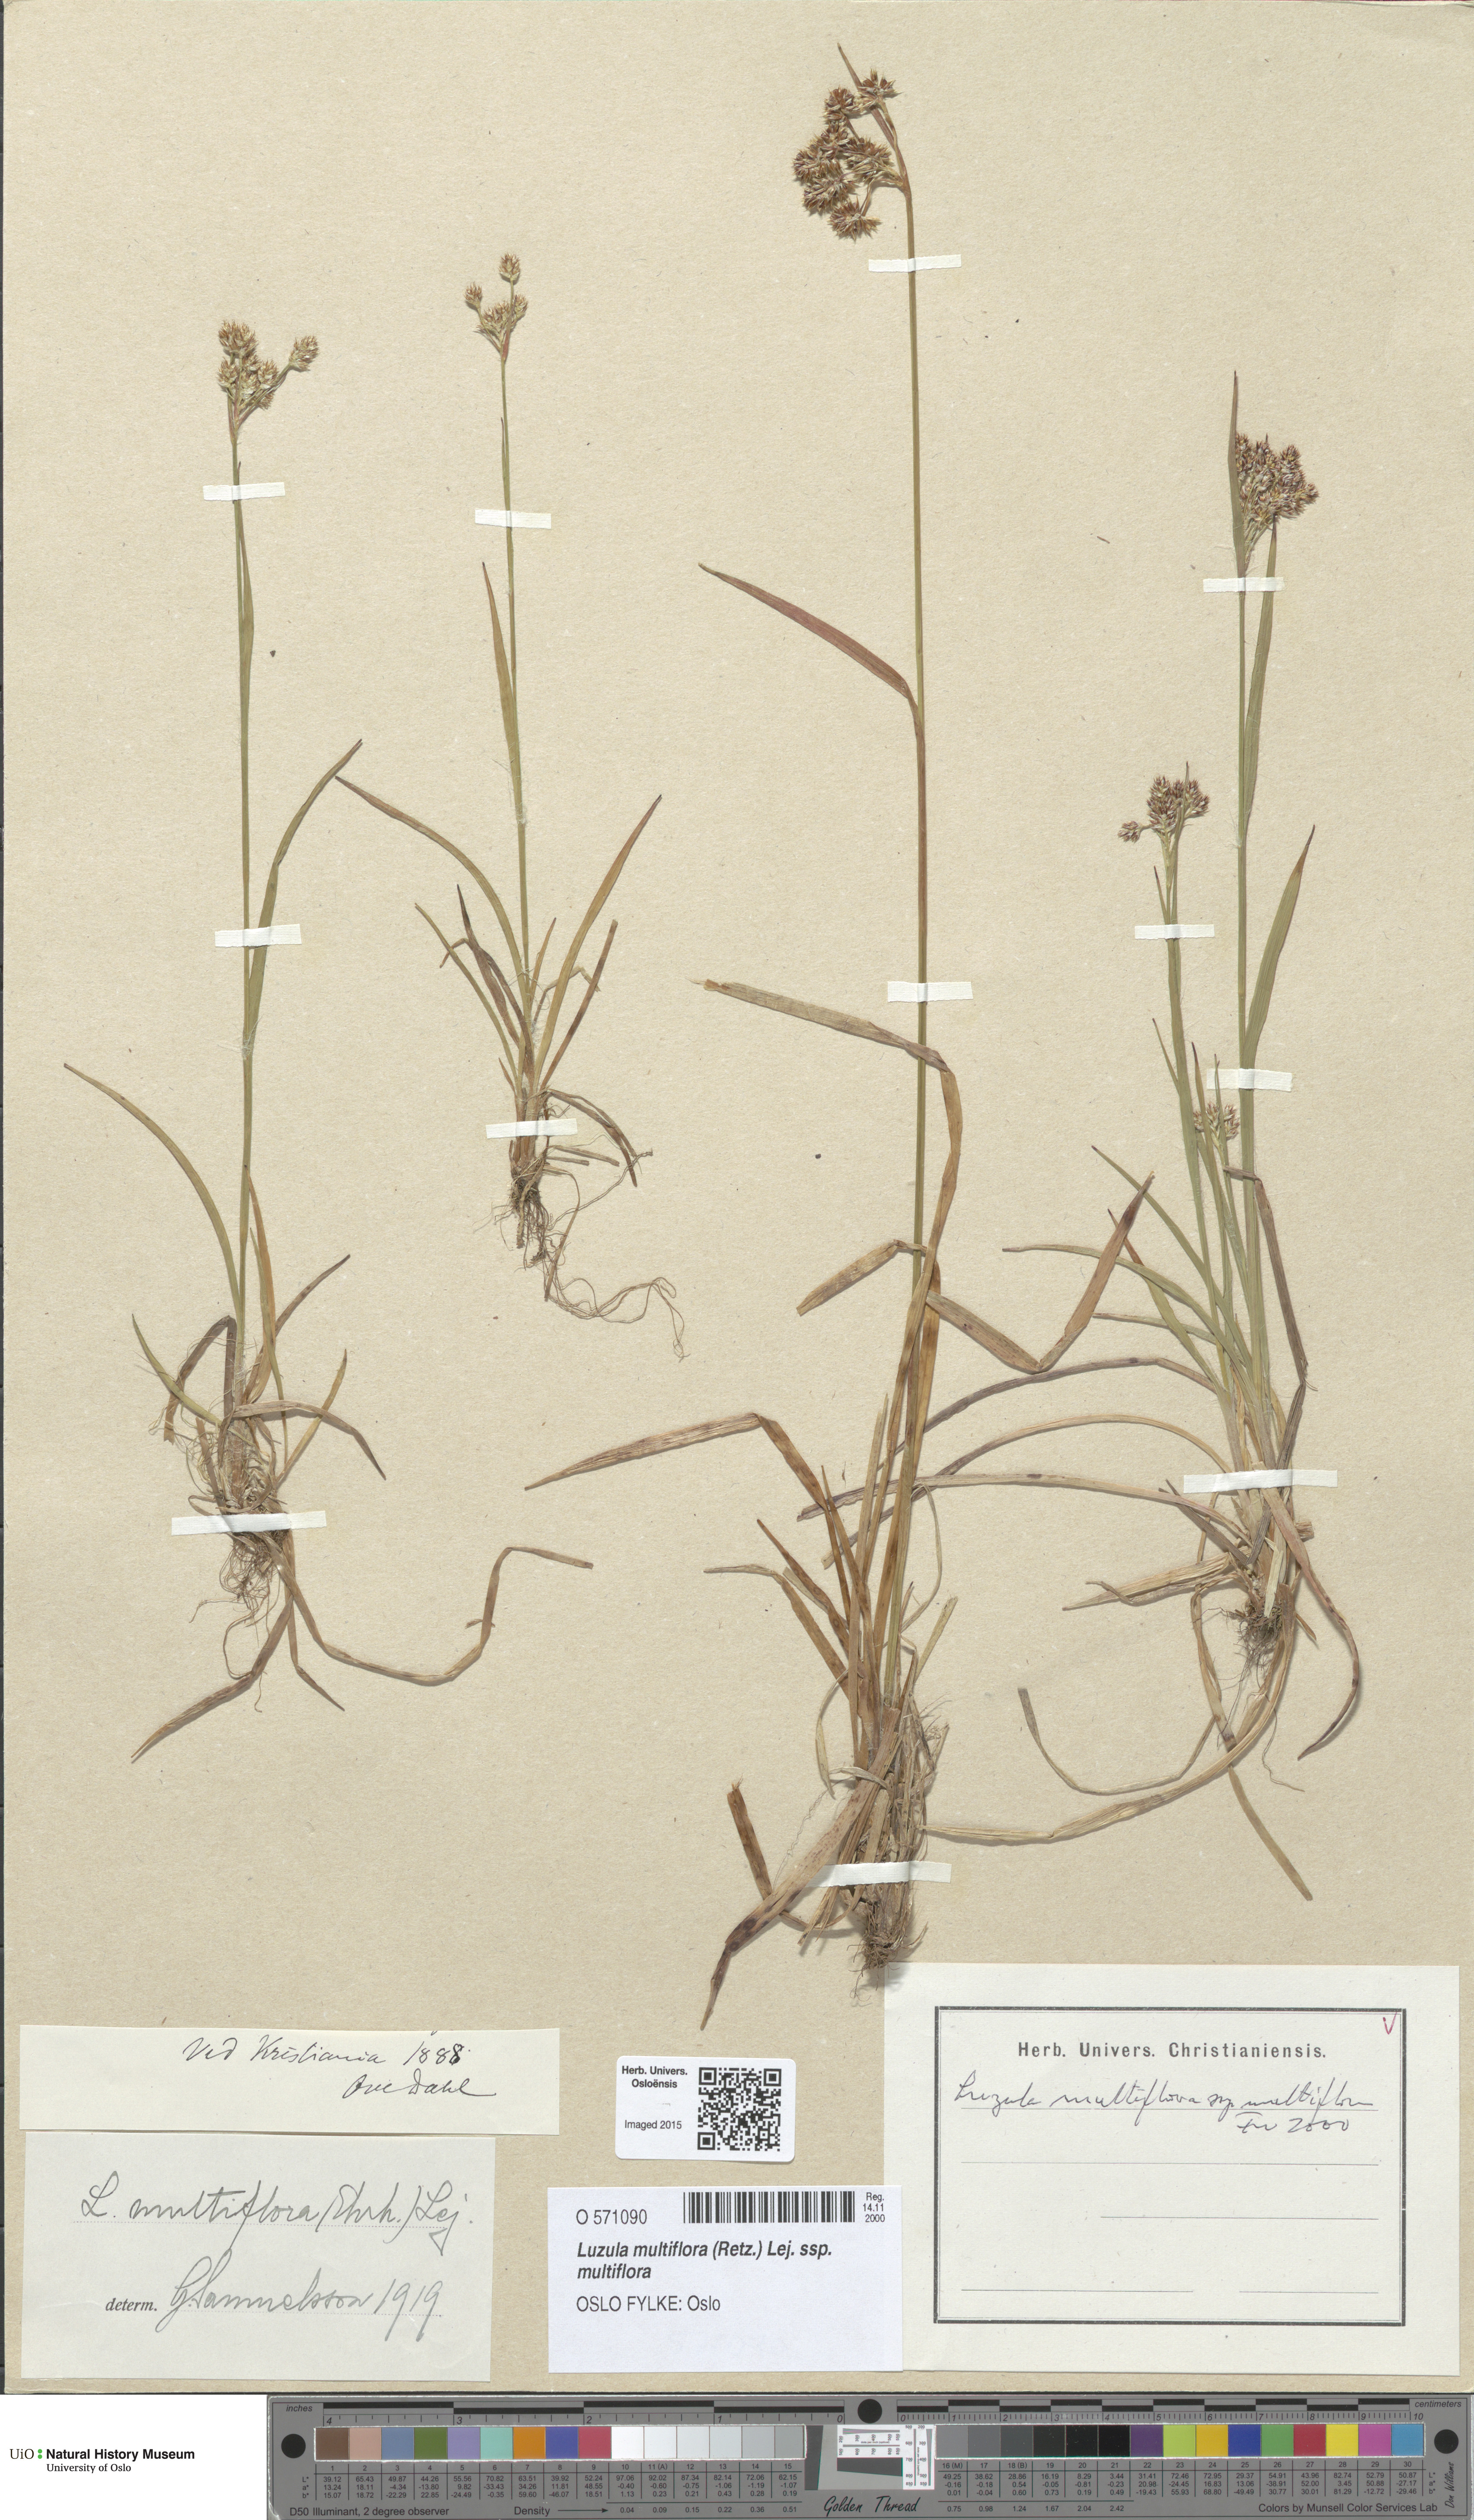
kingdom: Plantae
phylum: Tracheophyta
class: Liliopsida
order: Poales
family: Juncaceae
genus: Luzula
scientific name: Luzula multiflora
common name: Heath wood-rush
